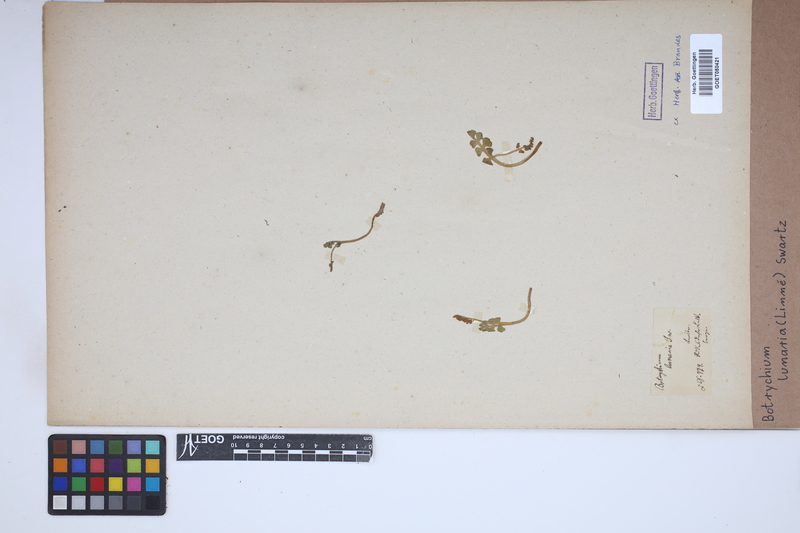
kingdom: Plantae
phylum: Tracheophyta
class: Polypodiopsida
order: Ophioglossales
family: Ophioglossaceae
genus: Botrychium
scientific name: Botrychium lunaria
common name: Moonwort
